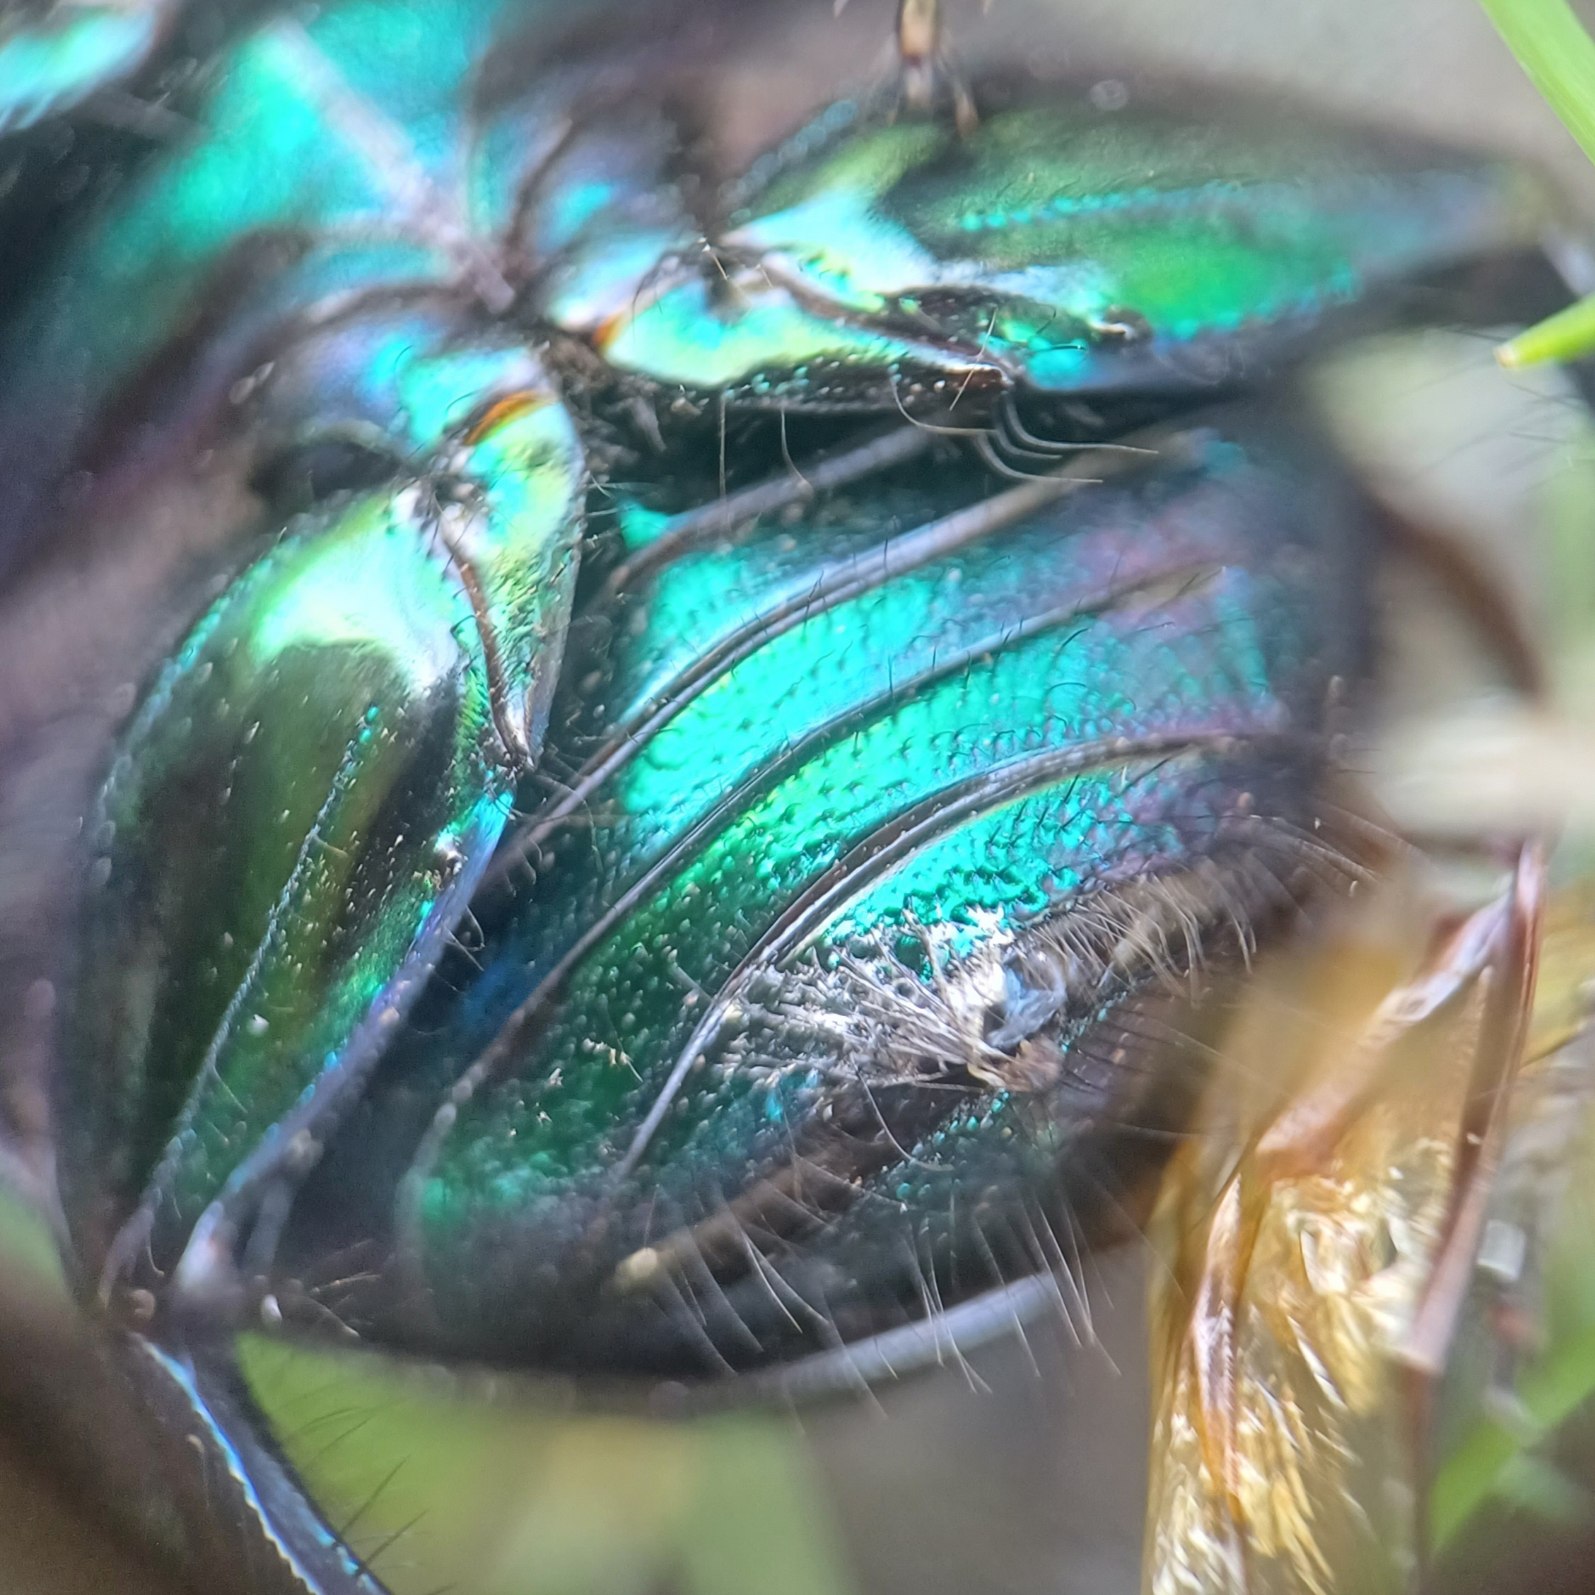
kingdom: Animalia
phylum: Arthropoda
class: Insecta
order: Coleoptera
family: Geotrupidae
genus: Geotrupes
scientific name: Geotrupes stercorarius
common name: Overdrevsskarnbasse
